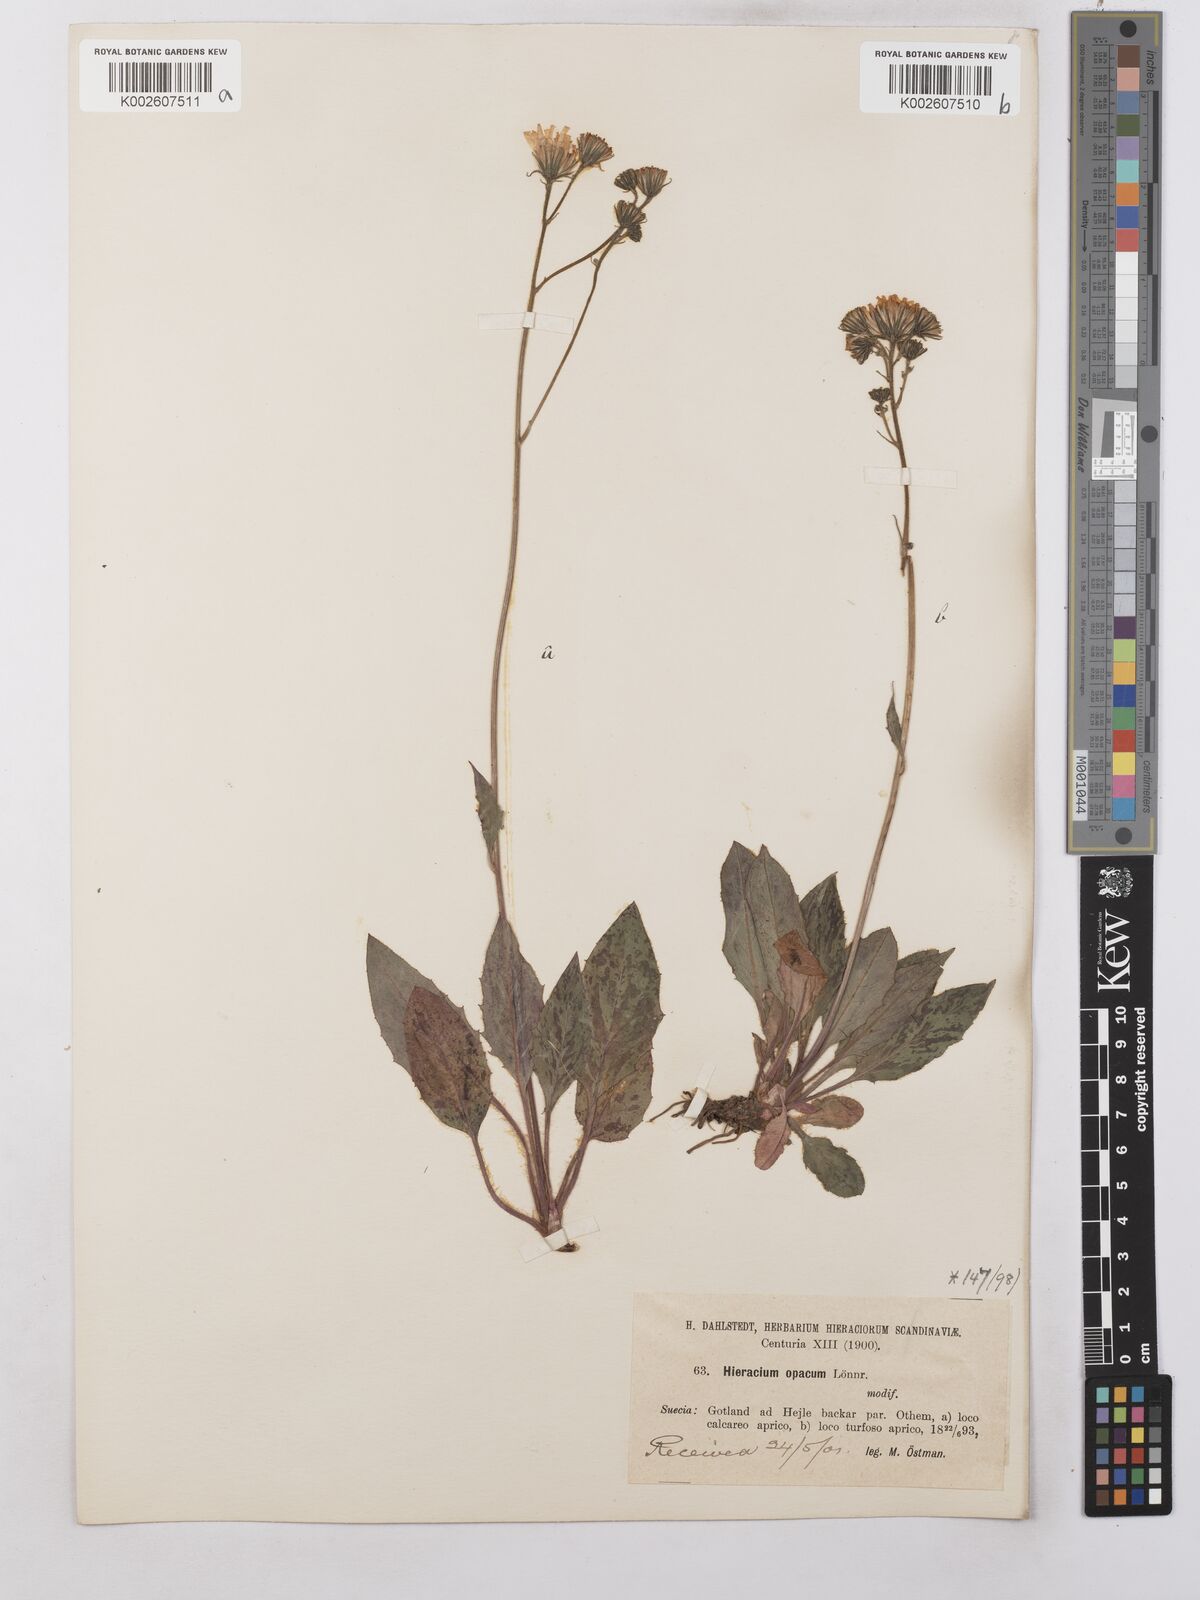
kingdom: Plantae
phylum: Tracheophyta
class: Magnoliopsida
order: Asterales
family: Asteraceae
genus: Hieracium
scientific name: Hieracium caesium
